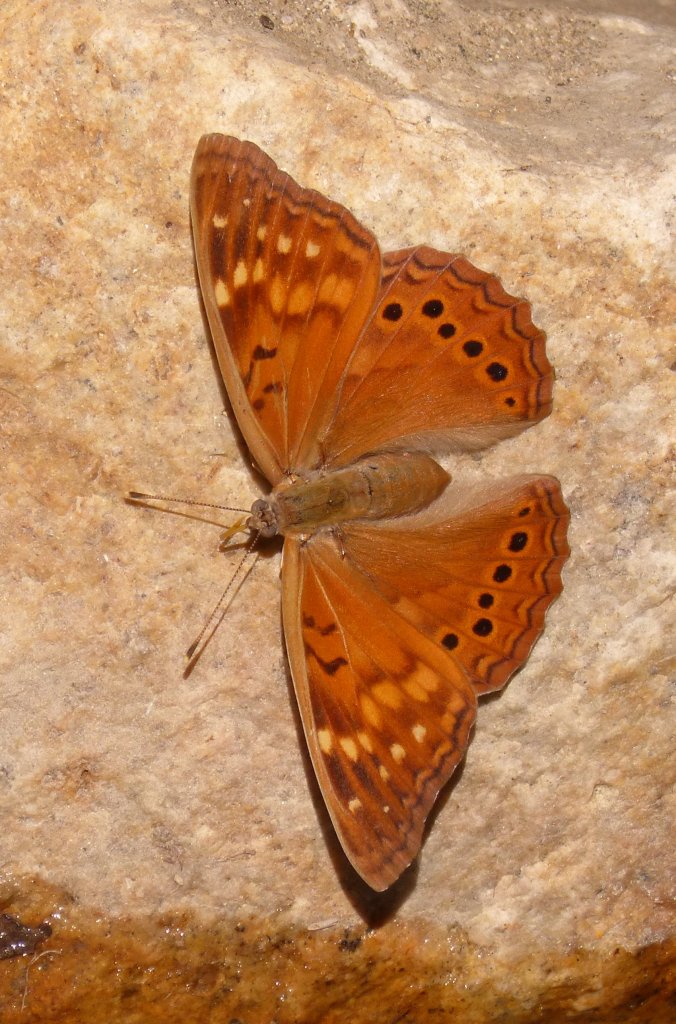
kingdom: Animalia
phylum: Arthropoda
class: Insecta
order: Lepidoptera
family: Nymphalidae
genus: Asterocampa
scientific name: Asterocampa clyton
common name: Tawny Emperor
